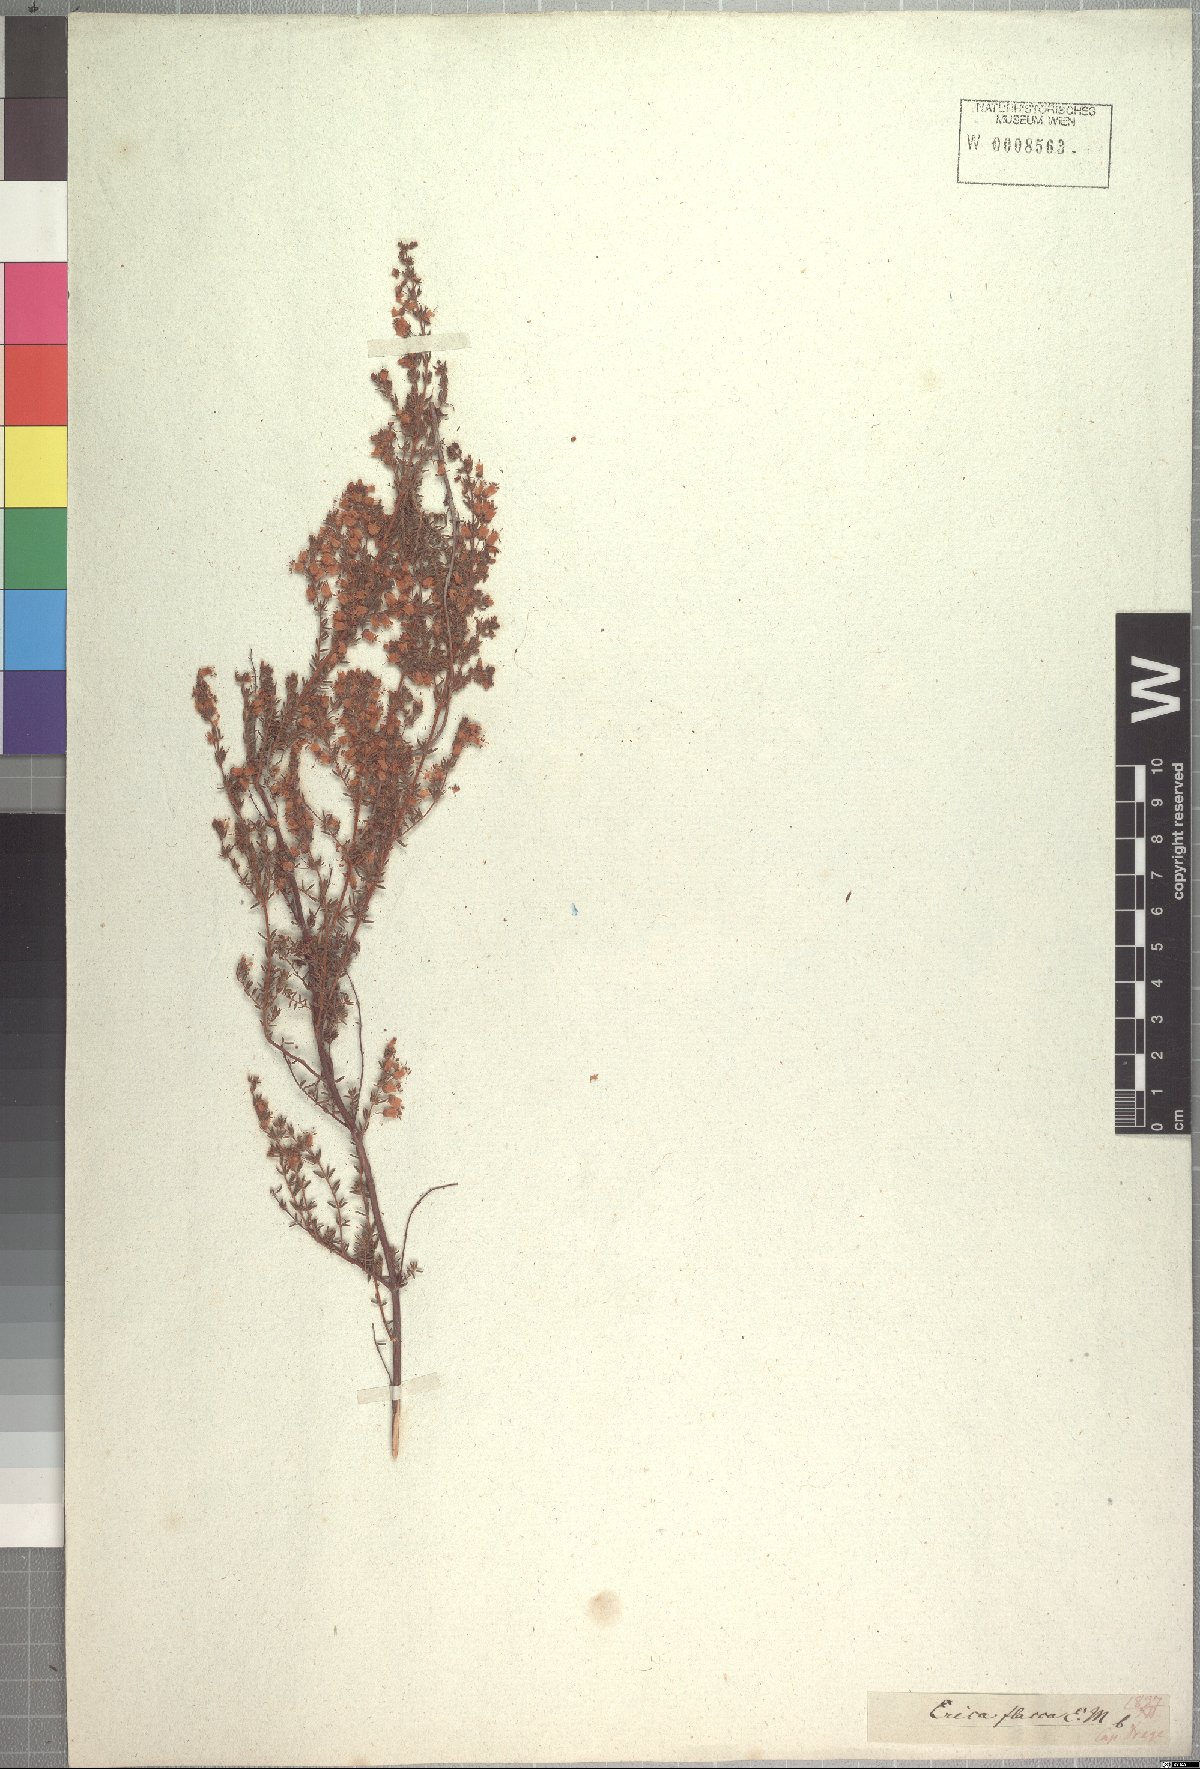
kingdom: Plantae
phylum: Tracheophyta
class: Magnoliopsida
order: Ericales
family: Ericaceae
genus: Erica
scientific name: Erica flacca
